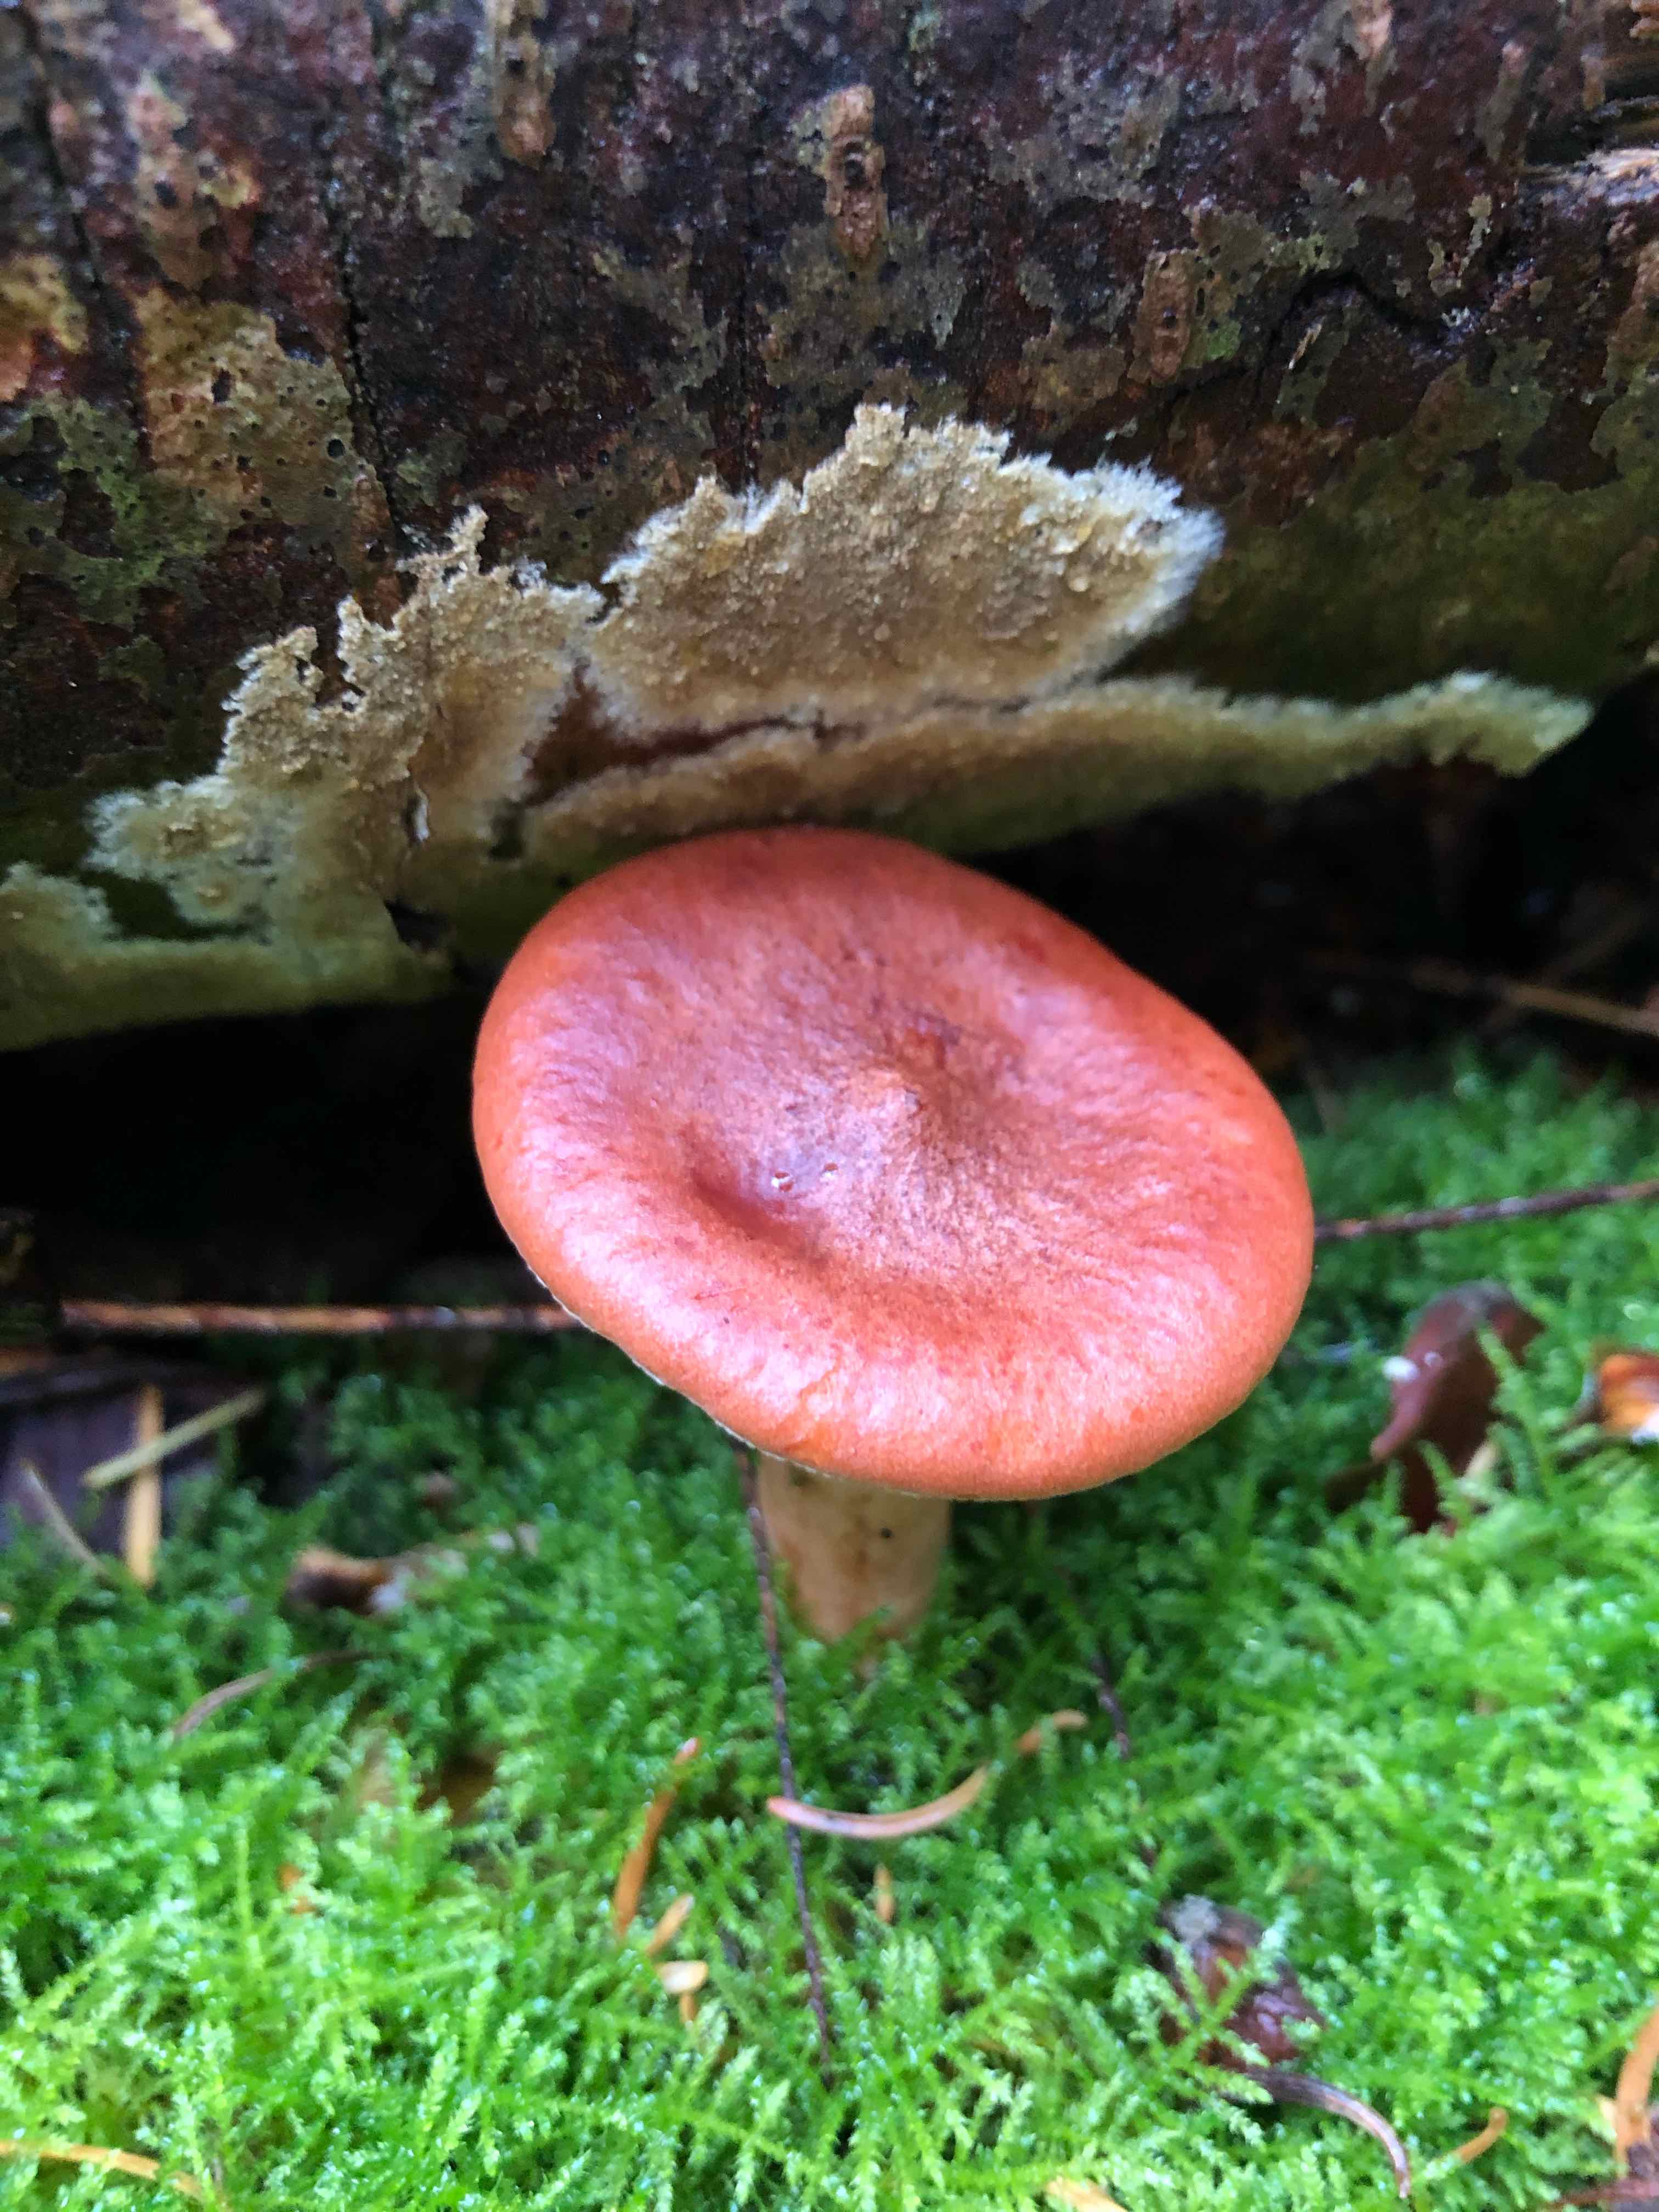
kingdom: Fungi
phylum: Basidiomycota
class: Agaricomycetes
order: Russulales
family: Russulaceae
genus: Lactarius
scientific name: Lactarius rufus
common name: rødbrun mælkehat
